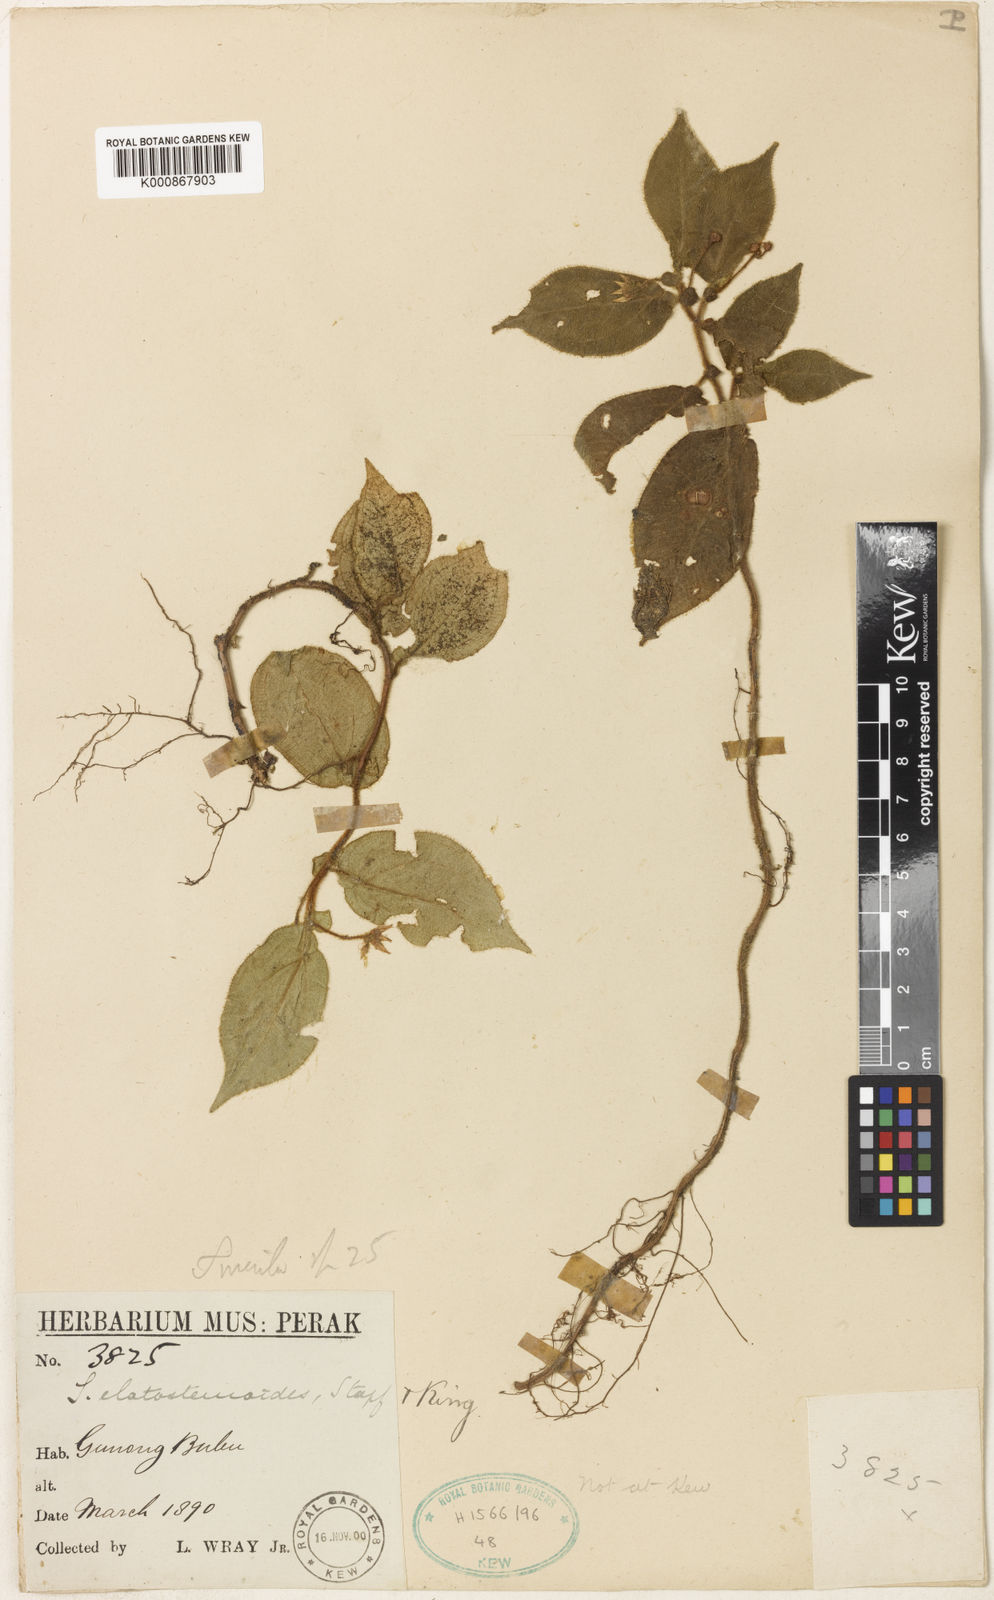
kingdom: Plantae
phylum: Tracheophyta
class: Magnoliopsida
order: Myrtales
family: Melastomataceae
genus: Sonerila
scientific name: Sonerila elatostemoides
